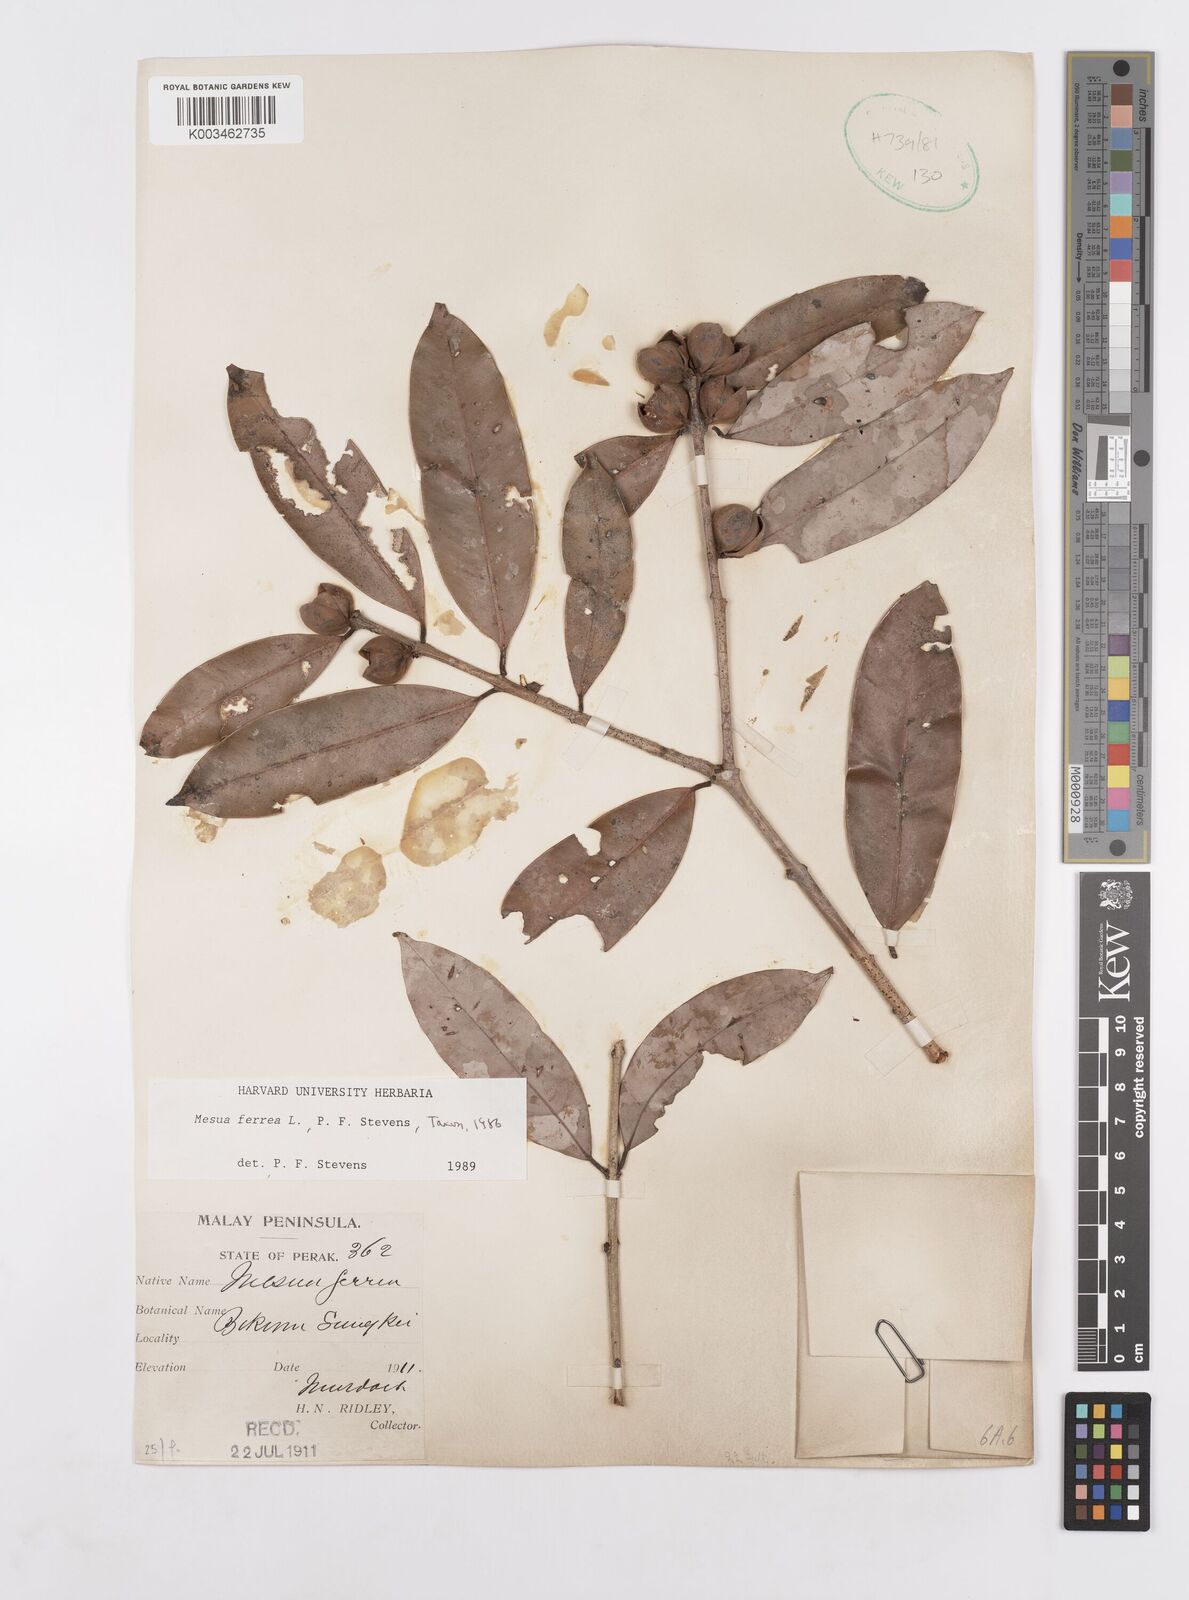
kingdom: Plantae
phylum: Tracheophyta
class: Magnoliopsida
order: Malpighiales
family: Calophyllaceae
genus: Mesua
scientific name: Mesua ferrea
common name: Mesua
